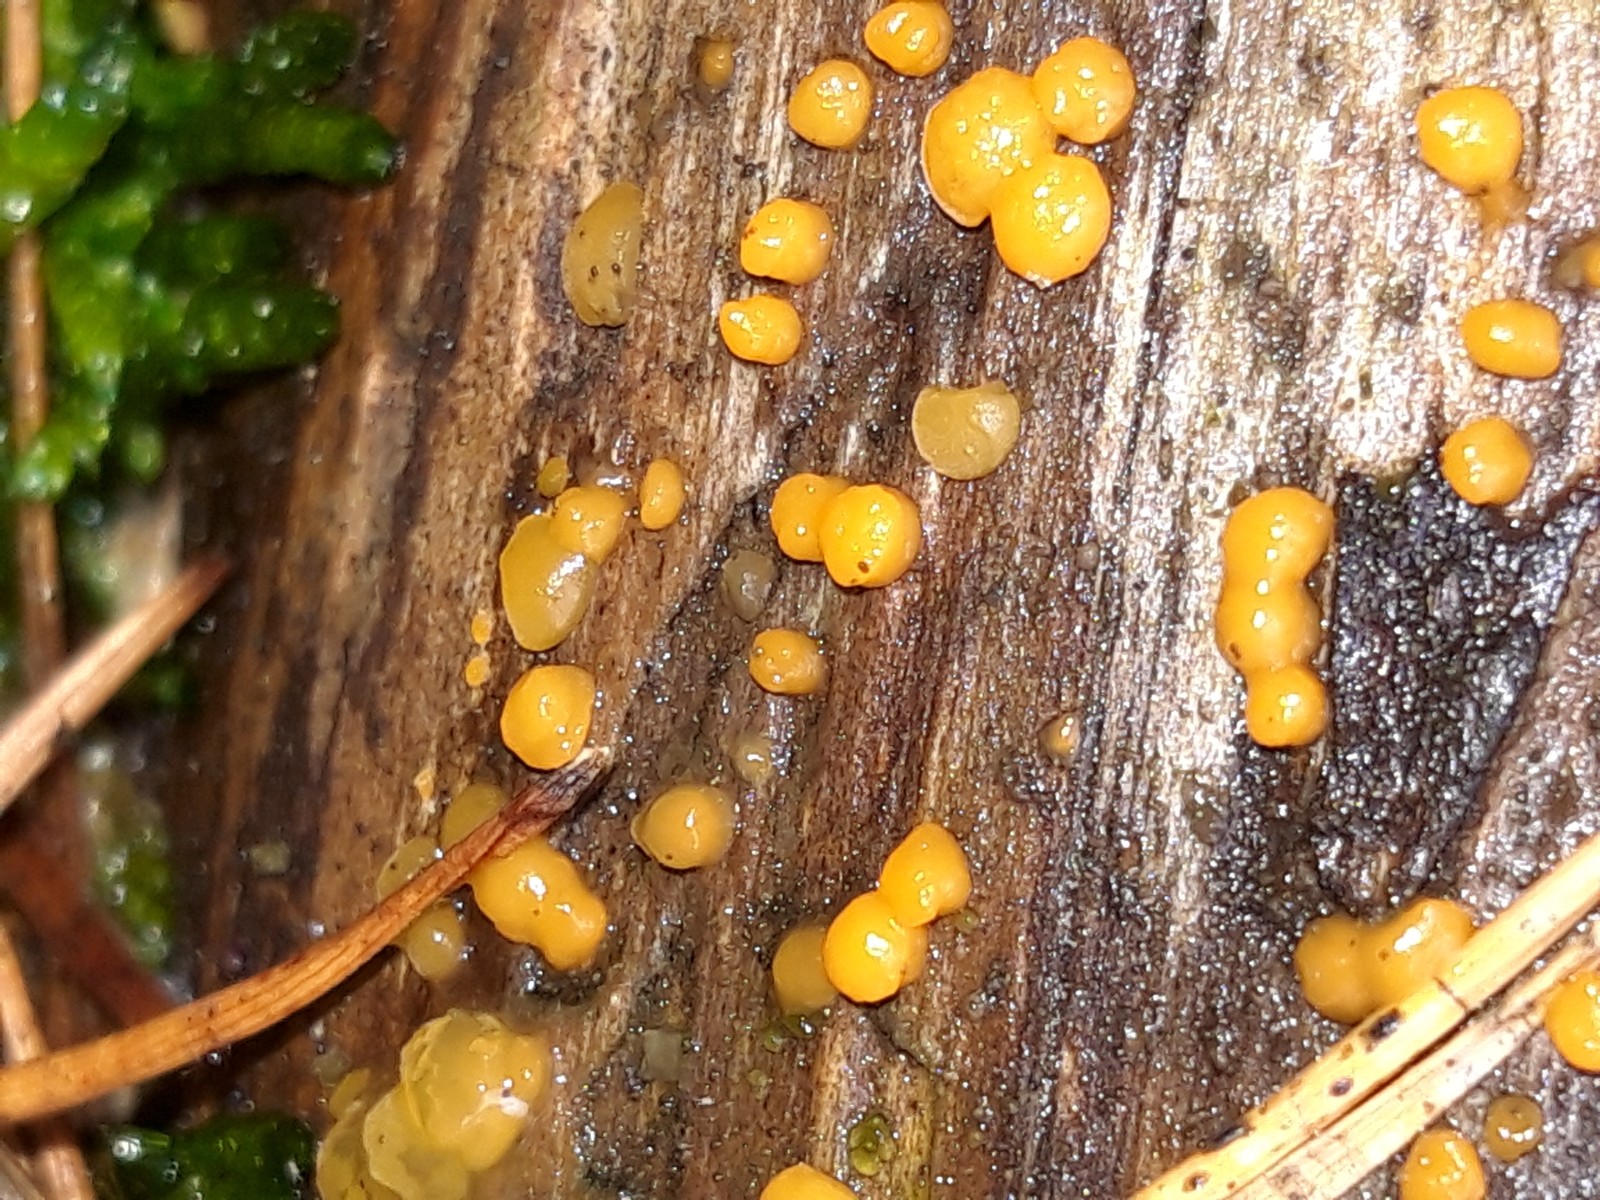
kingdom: Fungi
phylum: Basidiomycota
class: Dacrymycetes
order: Dacrymycetales
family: Dacrymycetaceae
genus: Dacrymyces
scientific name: Dacrymyces stillatus
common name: almindelig tåresvamp
